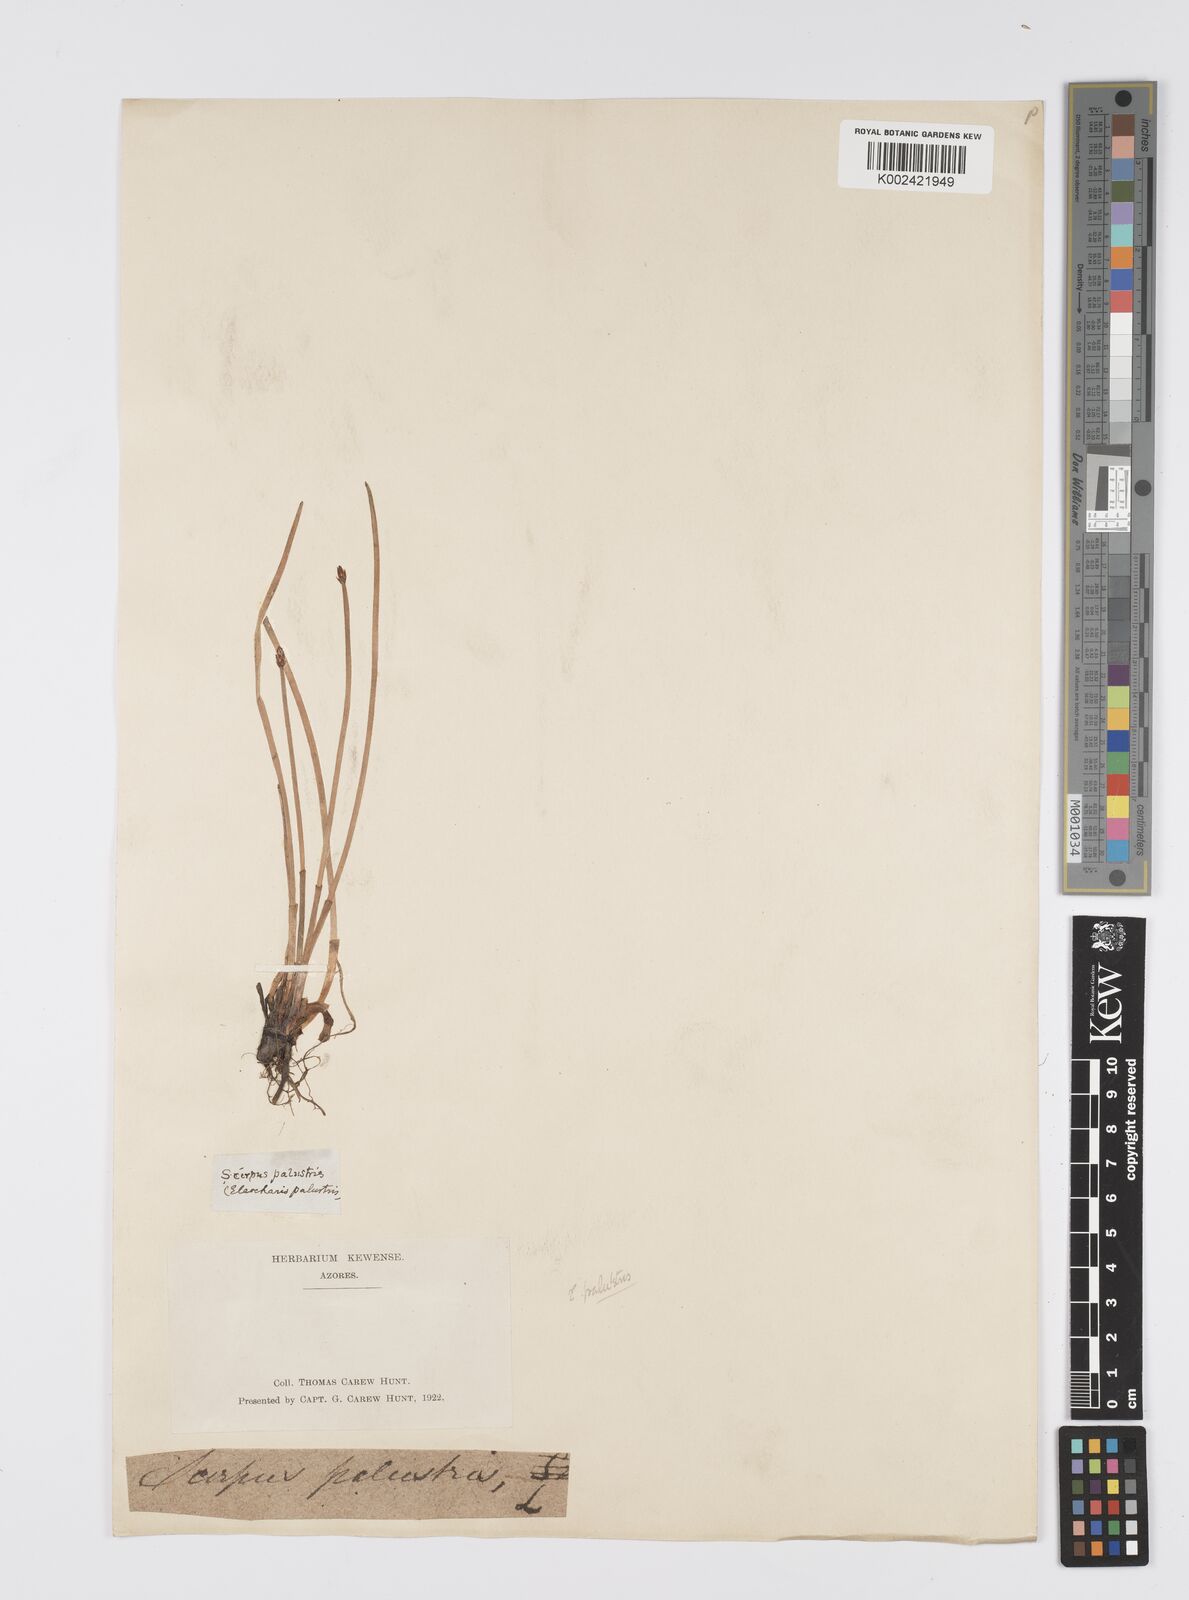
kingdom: Plantae
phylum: Tracheophyta
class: Liliopsida
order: Poales
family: Cyperaceae
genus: Eleocharis
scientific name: Eleocharis palustris
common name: Common spike-rush
